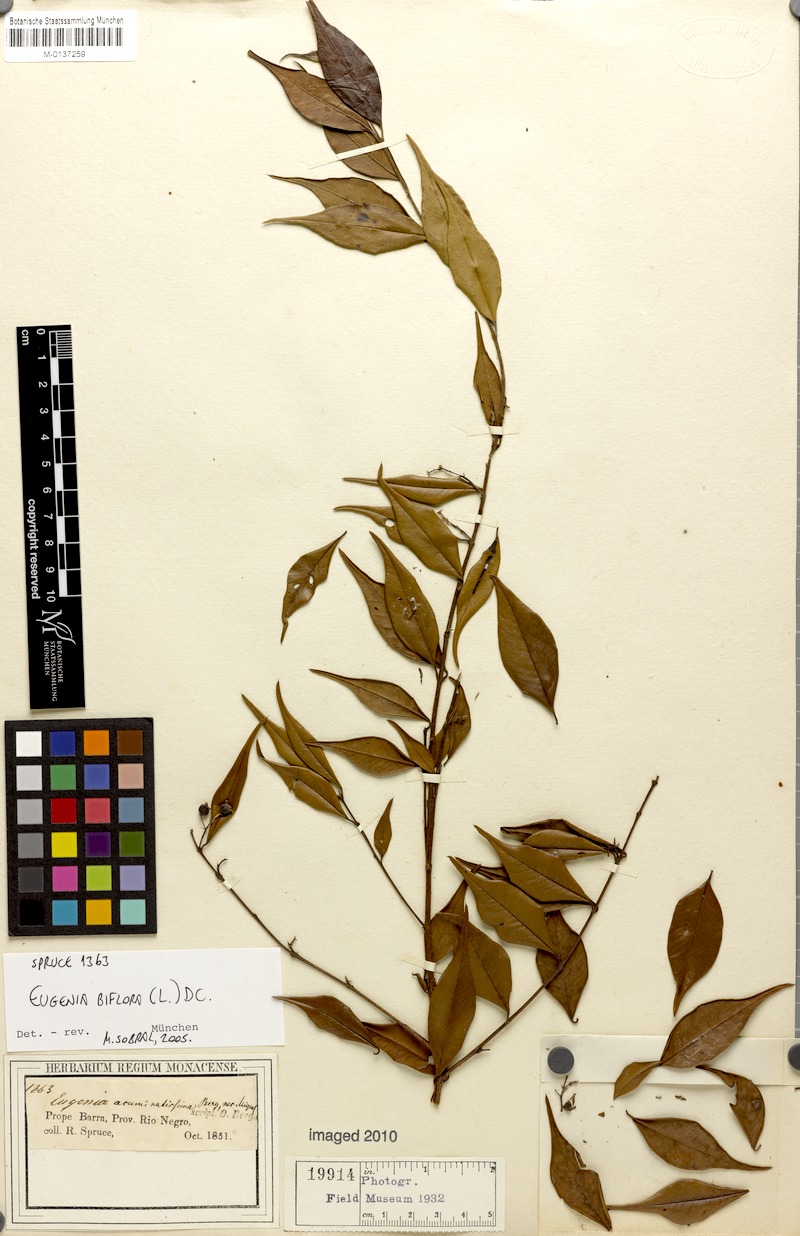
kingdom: Plantae
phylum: Tracheophyta
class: Magnoliopsida
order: Myrtales
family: Myrtaceae
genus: Eugenia
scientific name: Eugenia biflora
